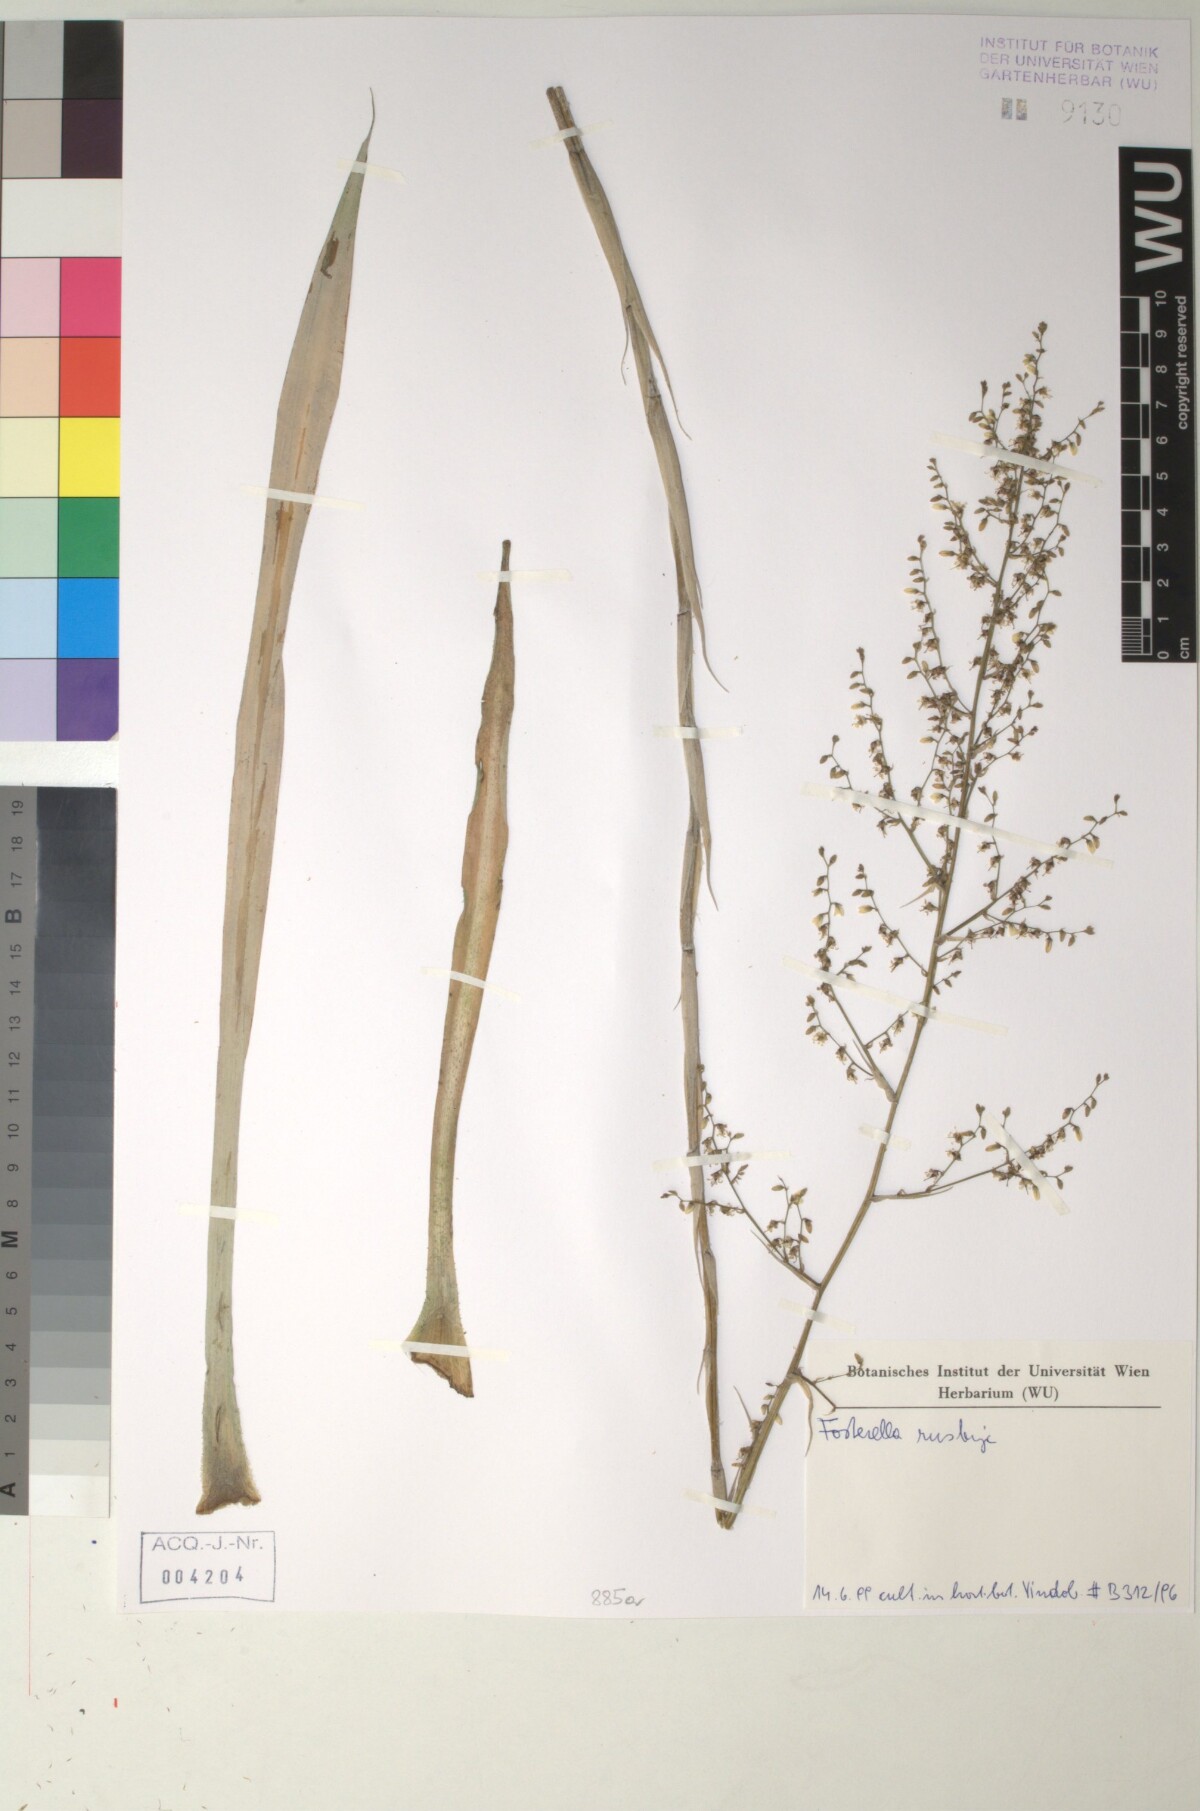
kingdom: Plantae
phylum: Tracheophyta
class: Liliopsida
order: Poales
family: Bromeliaceae
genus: Fosterella
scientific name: Fosterella graminea
